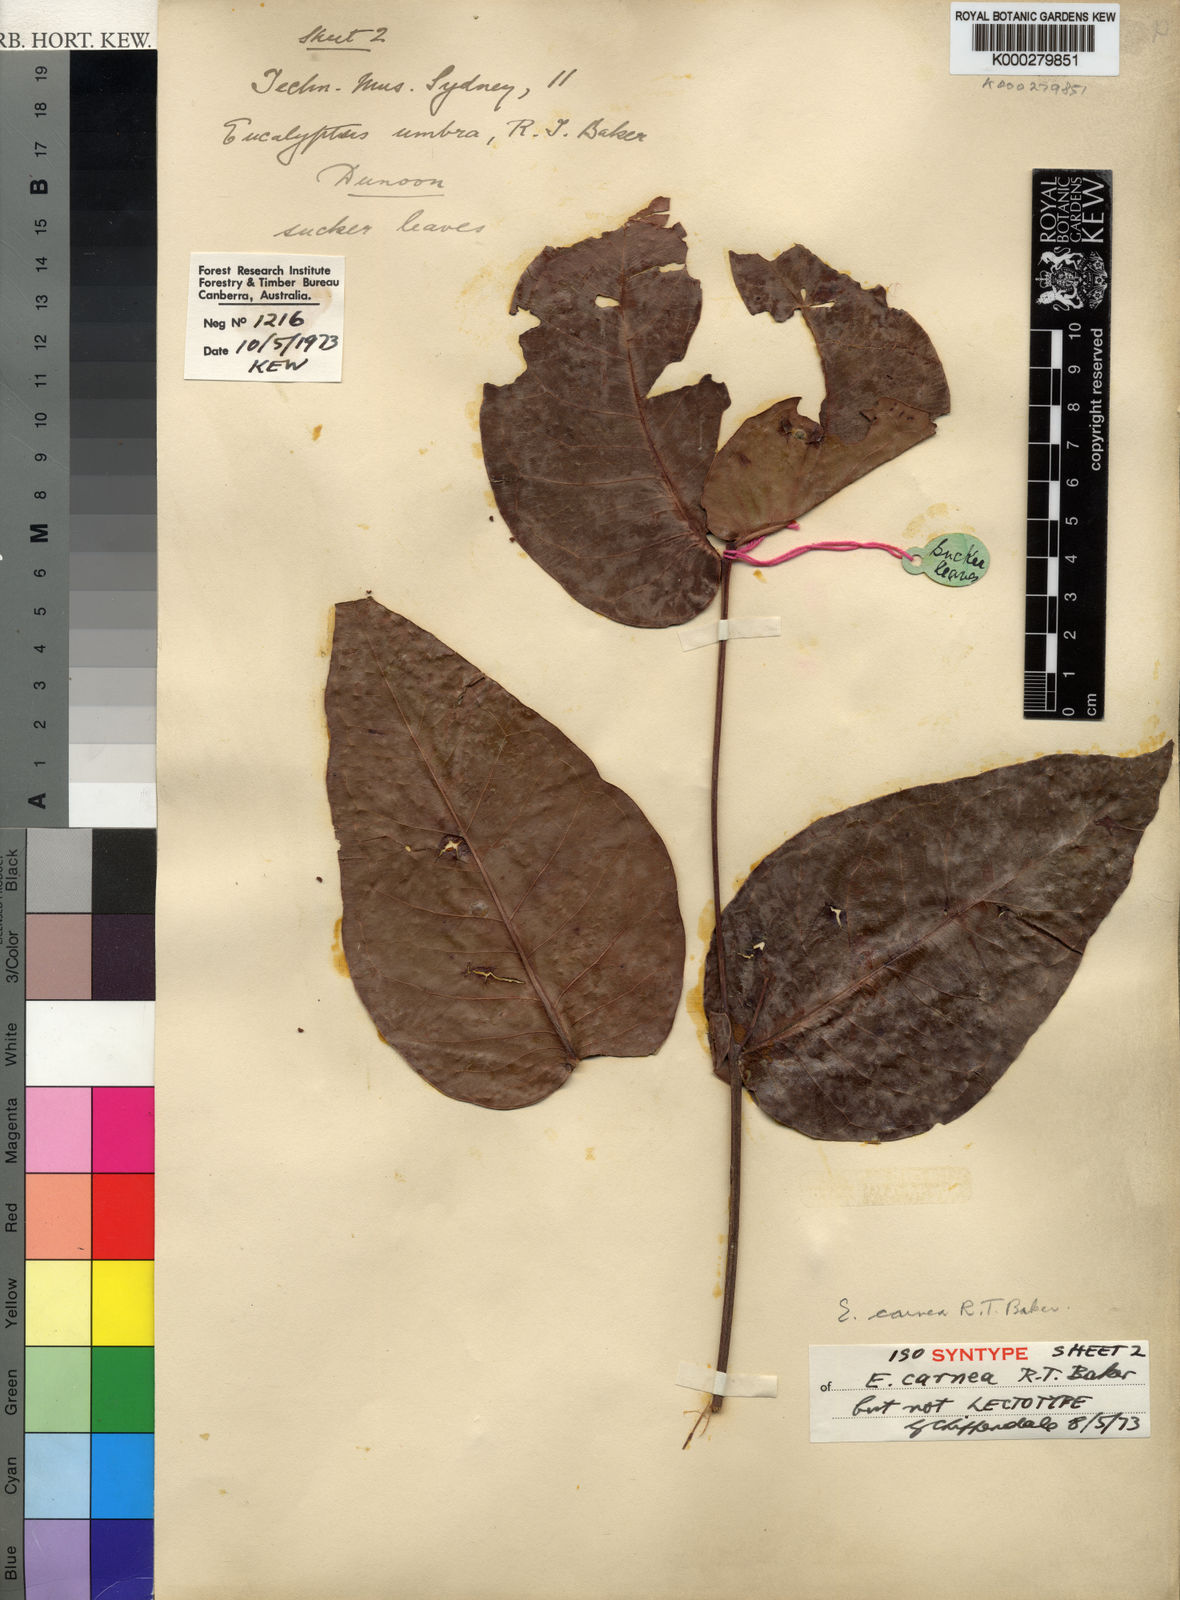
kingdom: Plantae
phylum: Tracheophyta
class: Magnoliopsida
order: Myrtales
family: Myrtaceae
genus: Eucalyptus
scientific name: Eucalyptus carnea
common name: Broad-leaved-white-mahogany
